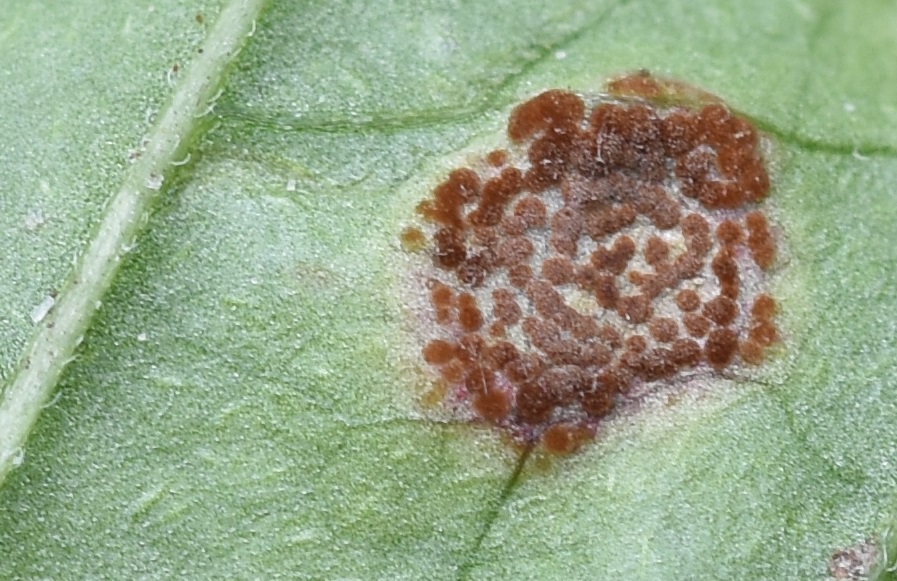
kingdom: Fungi
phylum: Basidiomycota
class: Pucciniomycetes
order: Pucciniales
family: Pucciniaceae
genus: Puccinia
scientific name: Puccinia circaeae
